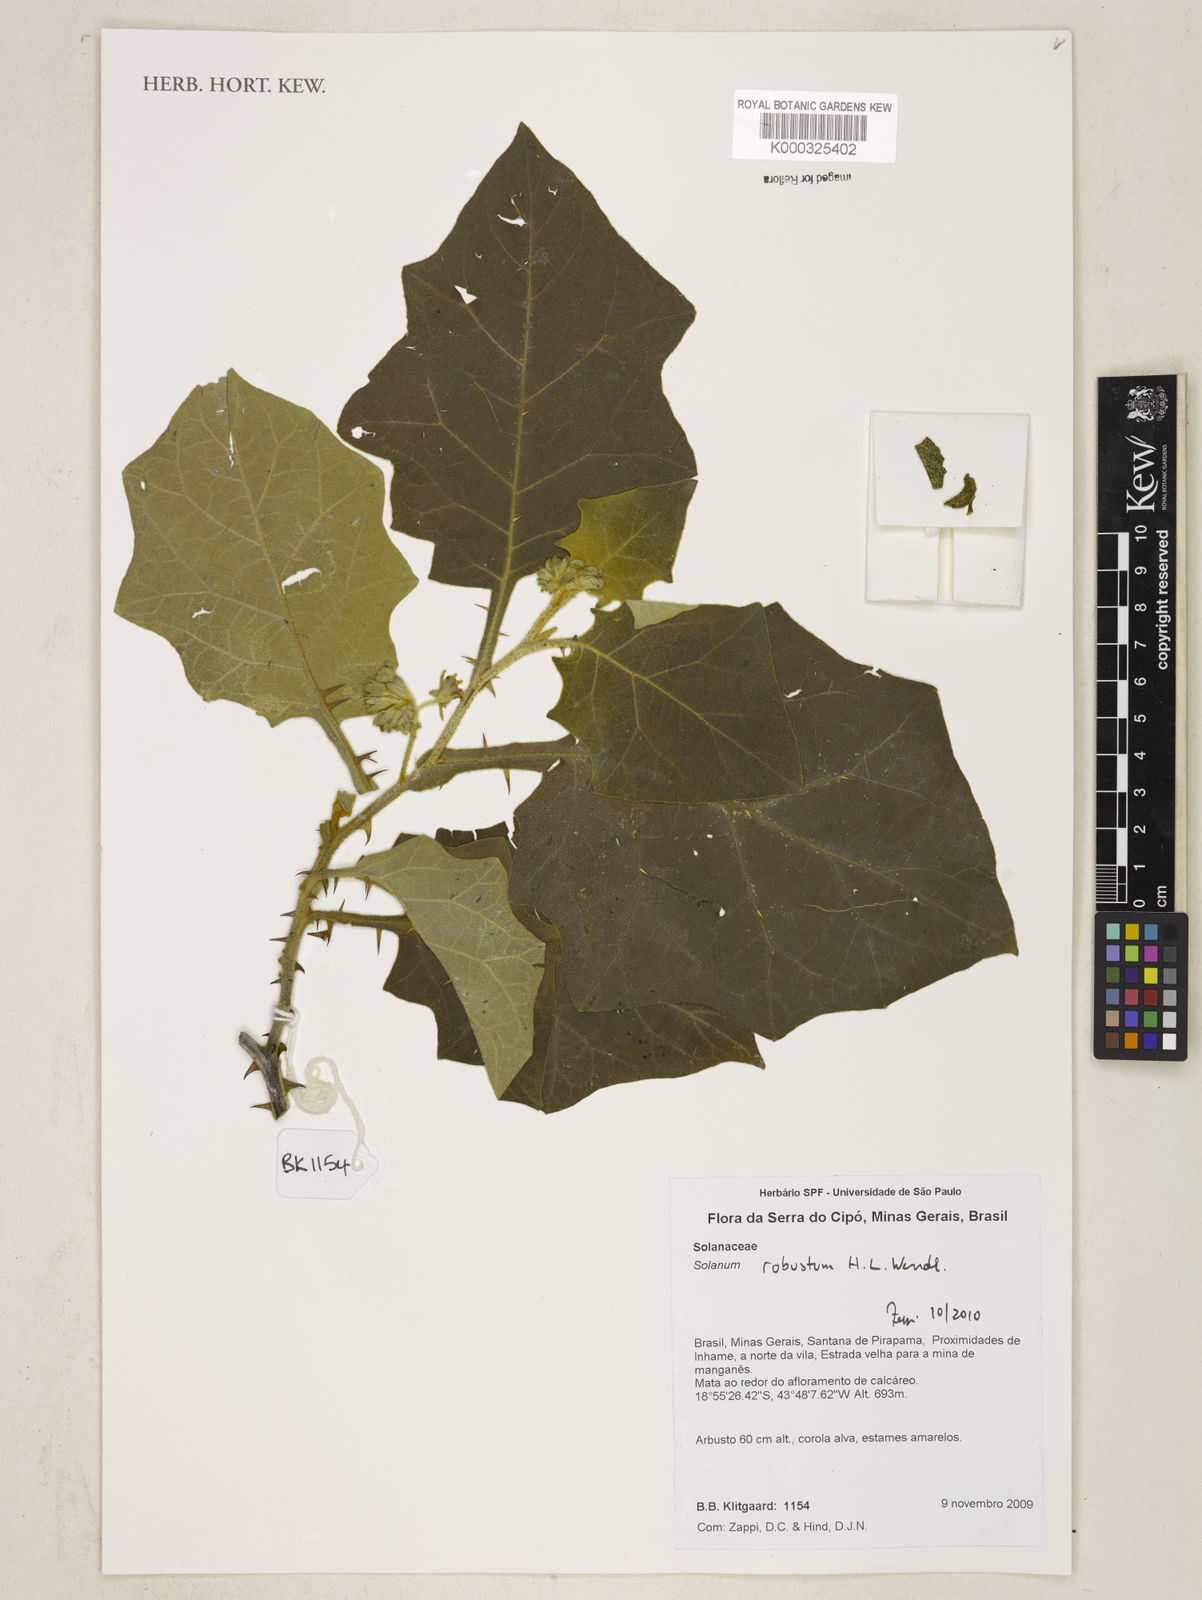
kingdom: Plantae
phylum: Tracheophyta
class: Magnoliopsida
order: Solanales
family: Solanaceae
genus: Solanum
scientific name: Solanum robustum
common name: Shrubby nightshade
